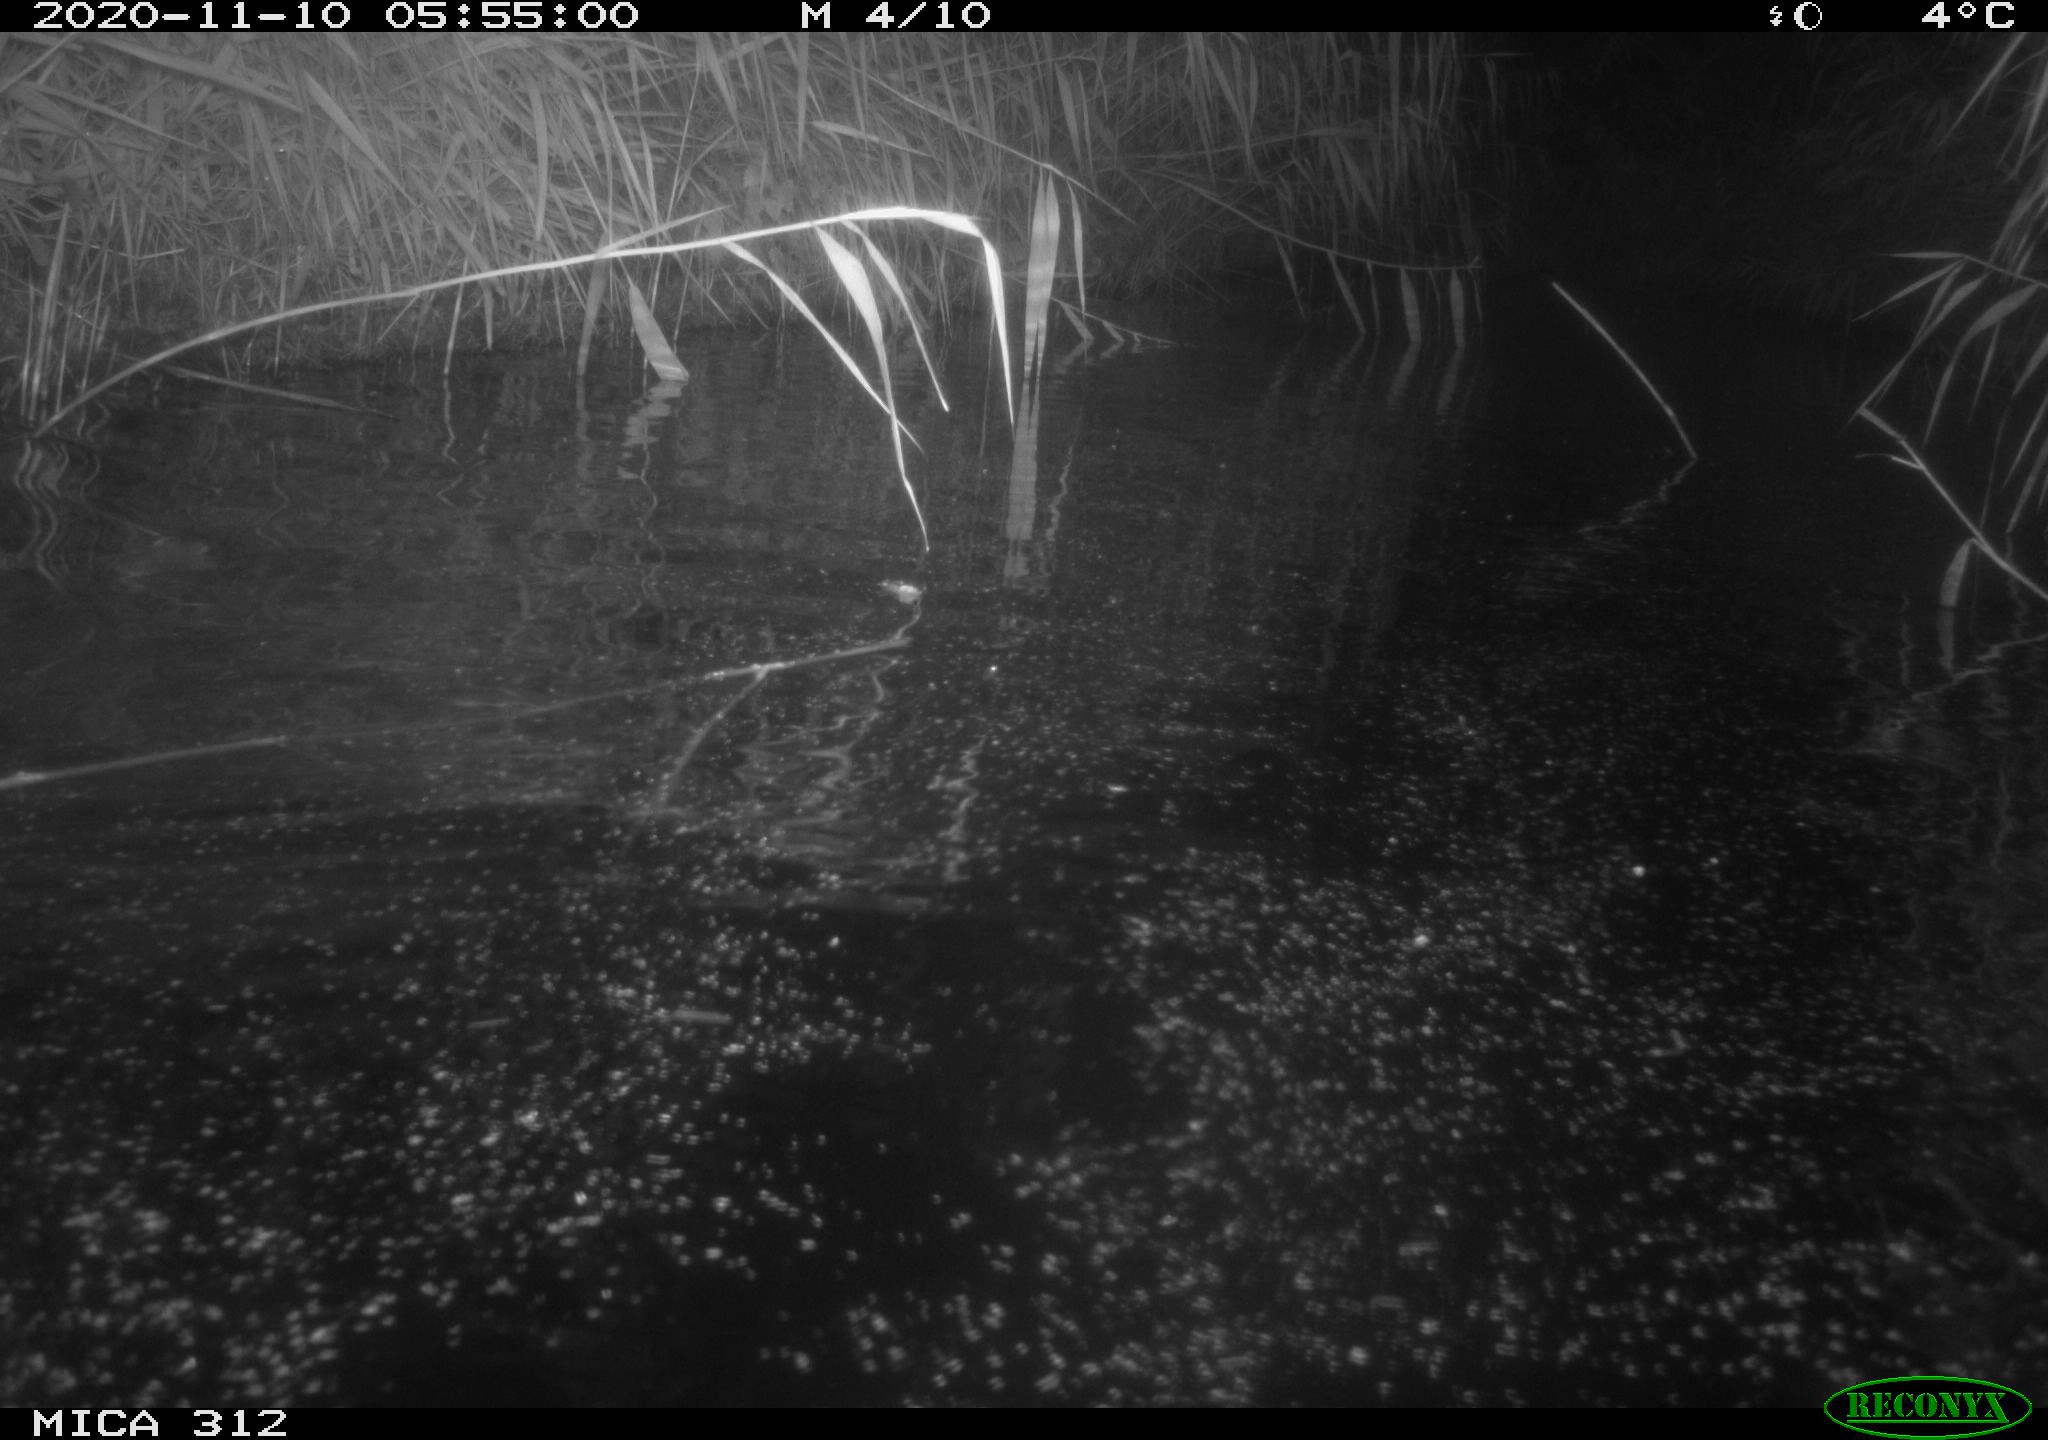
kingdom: Animalia
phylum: Chordata
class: Mammalia
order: Rodentia
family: Cricetidae
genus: Ondatra
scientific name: Ondatra zibethicus
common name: Muskrat
